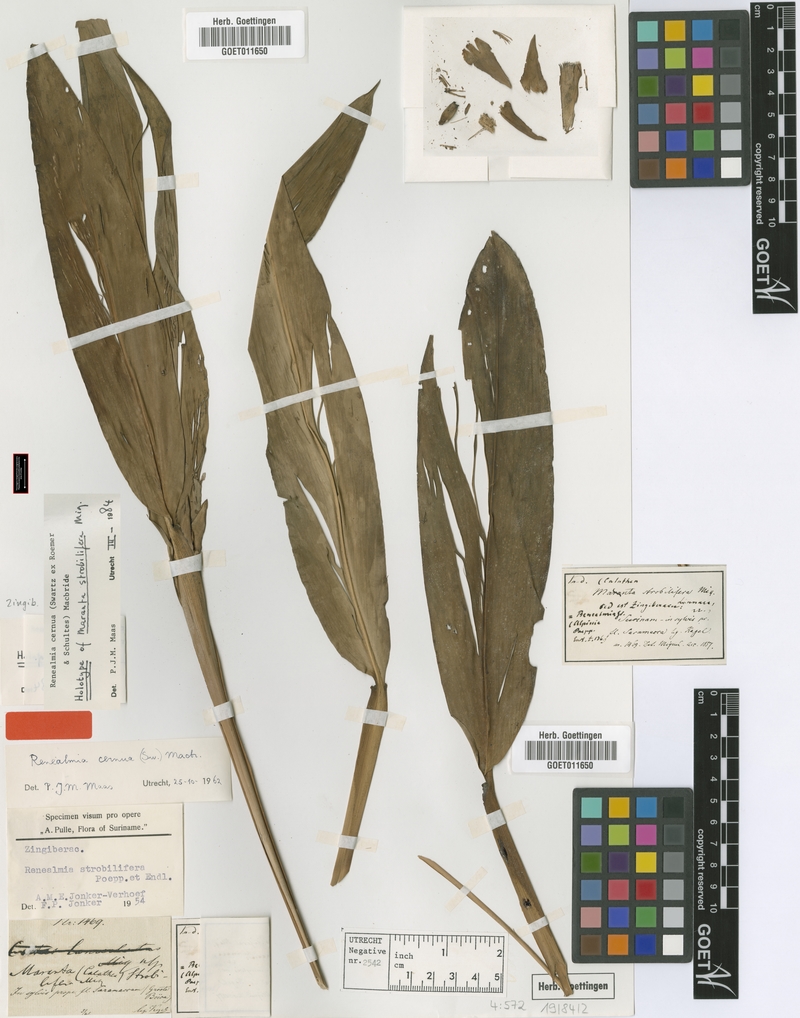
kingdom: Plantae
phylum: Tracheophyta
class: Liliopsida
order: Zingiberales
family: Zingiberaceae
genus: Renealmia
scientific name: Renealmia cernua
